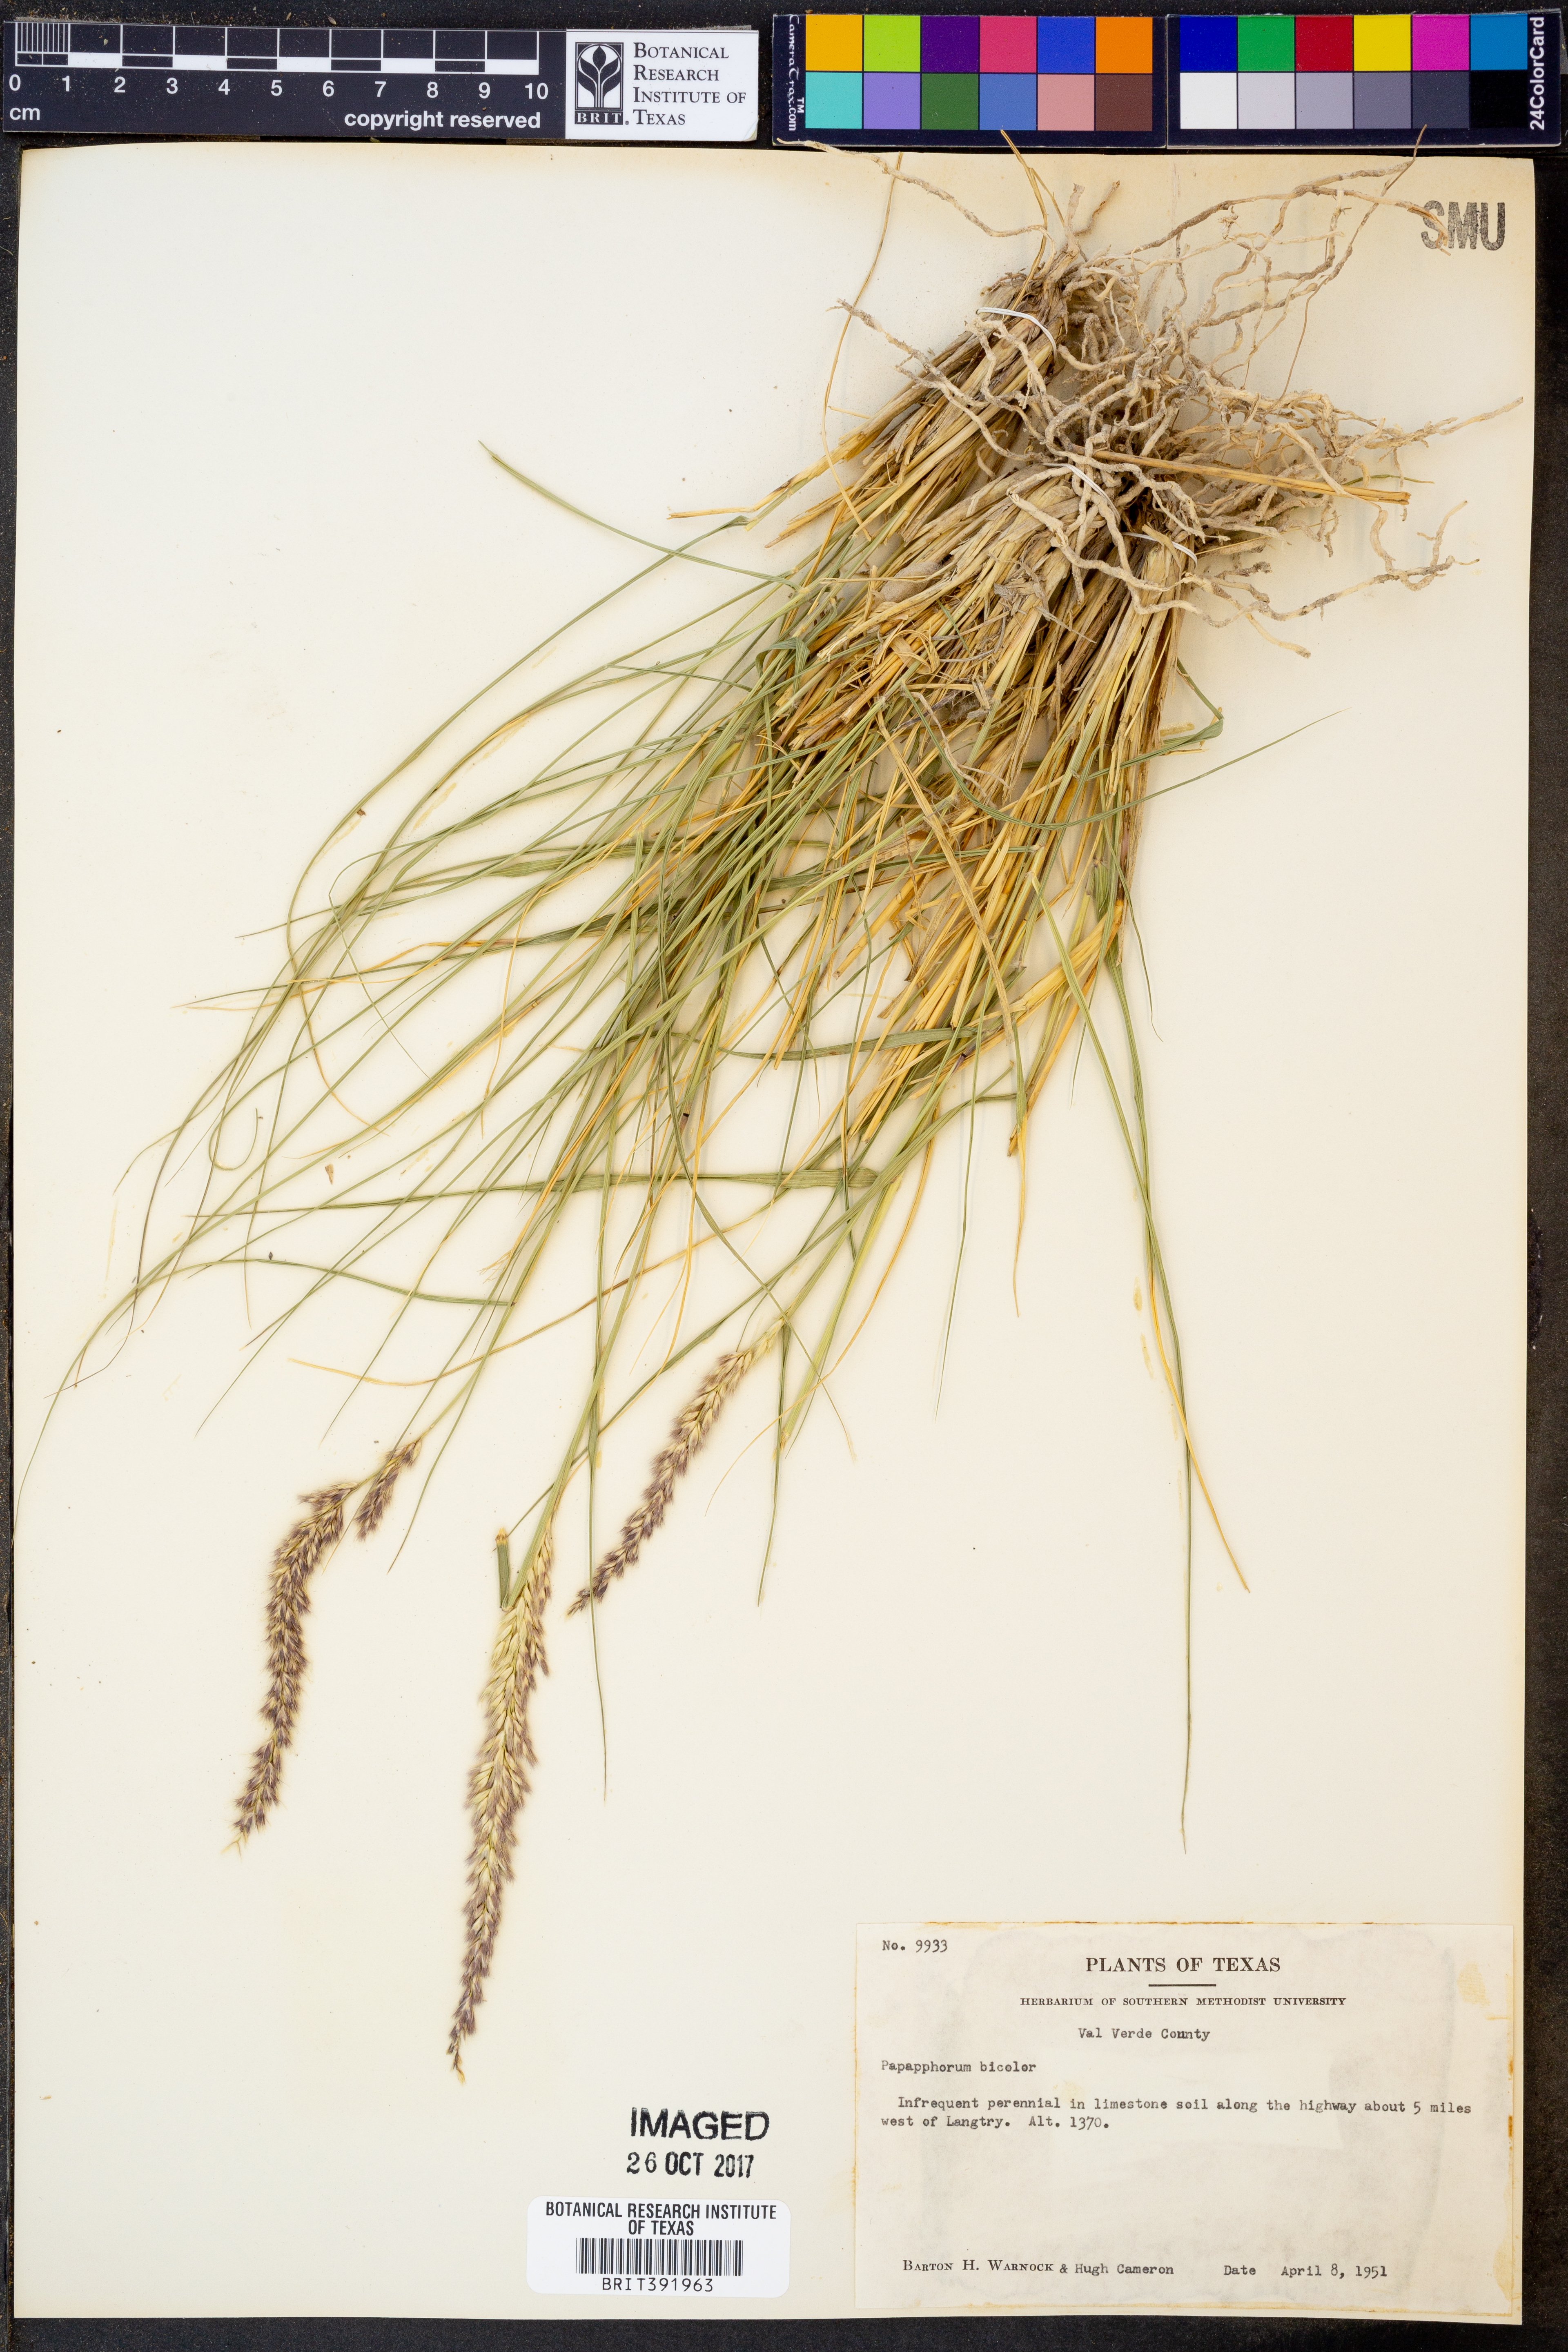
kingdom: Plantae
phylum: Tracheophyta
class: Liliopsida
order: Poales
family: Poaceae
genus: Pappophorum
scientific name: Pappophorum bicolor
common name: Pink pappus grass
